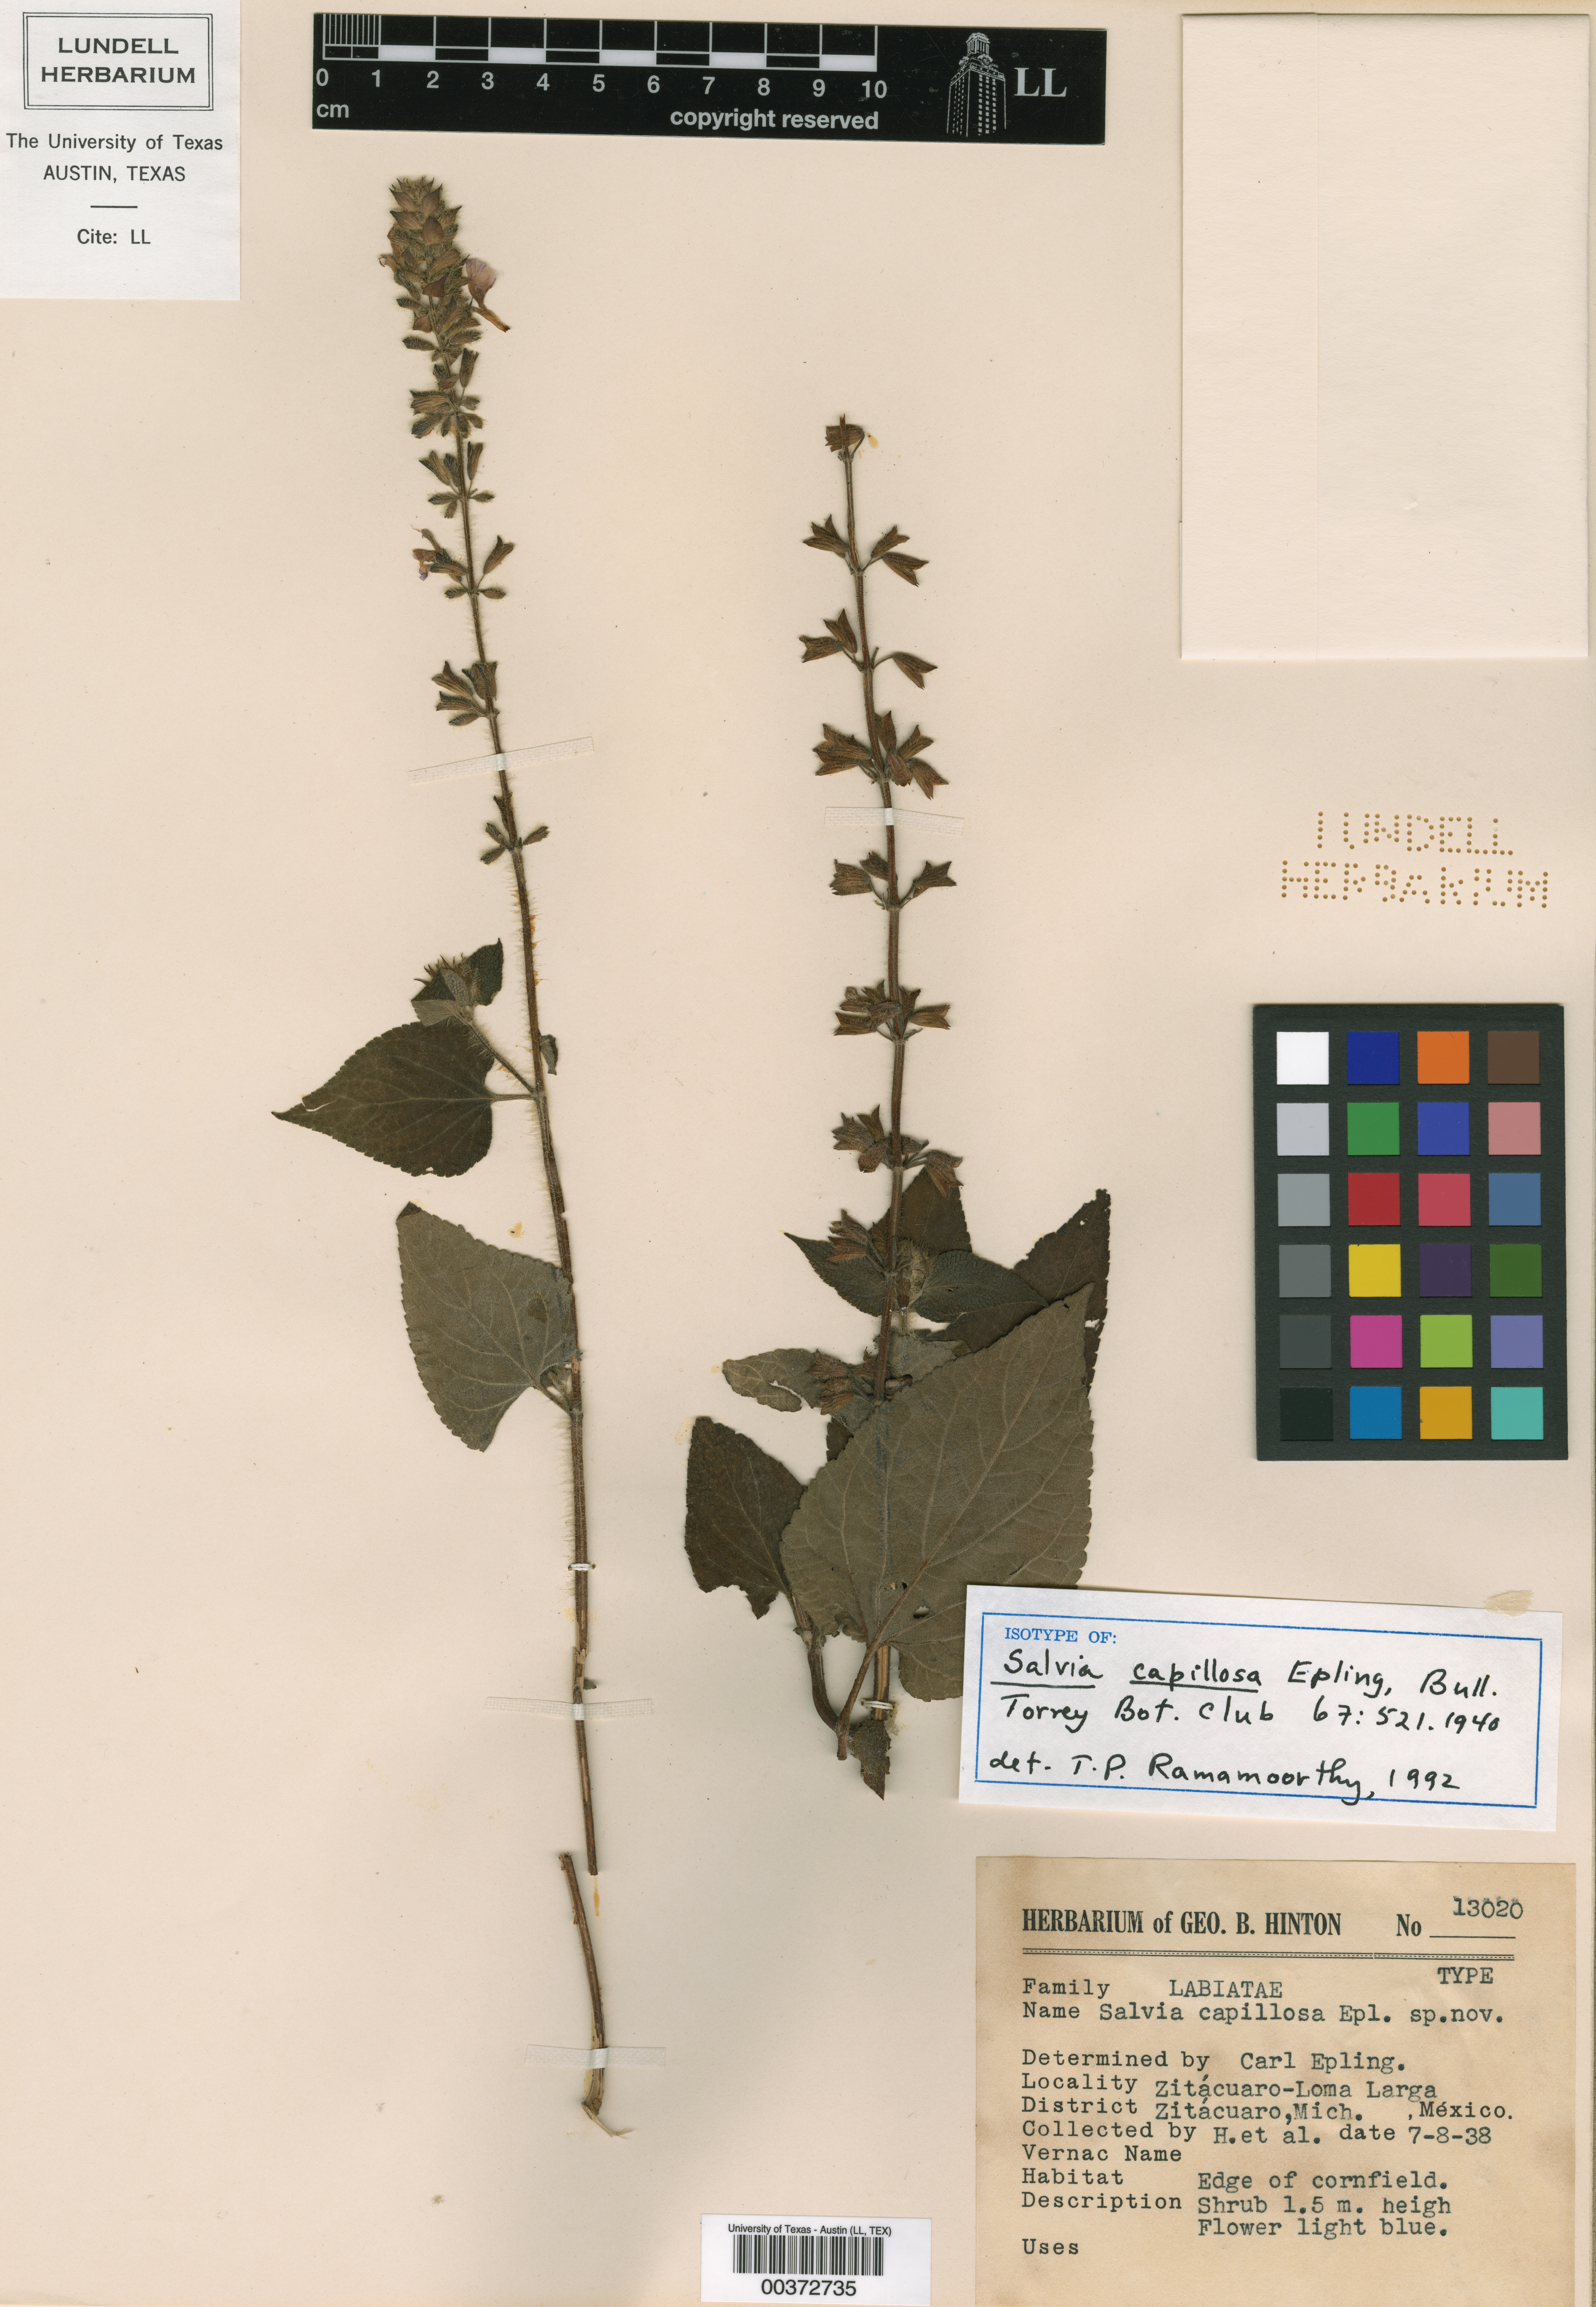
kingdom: Plantae
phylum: Tracheophyta
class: Magnoliopsida
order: Lamiales
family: Lamiaceae
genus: Salvia
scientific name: Salvia circinnata
